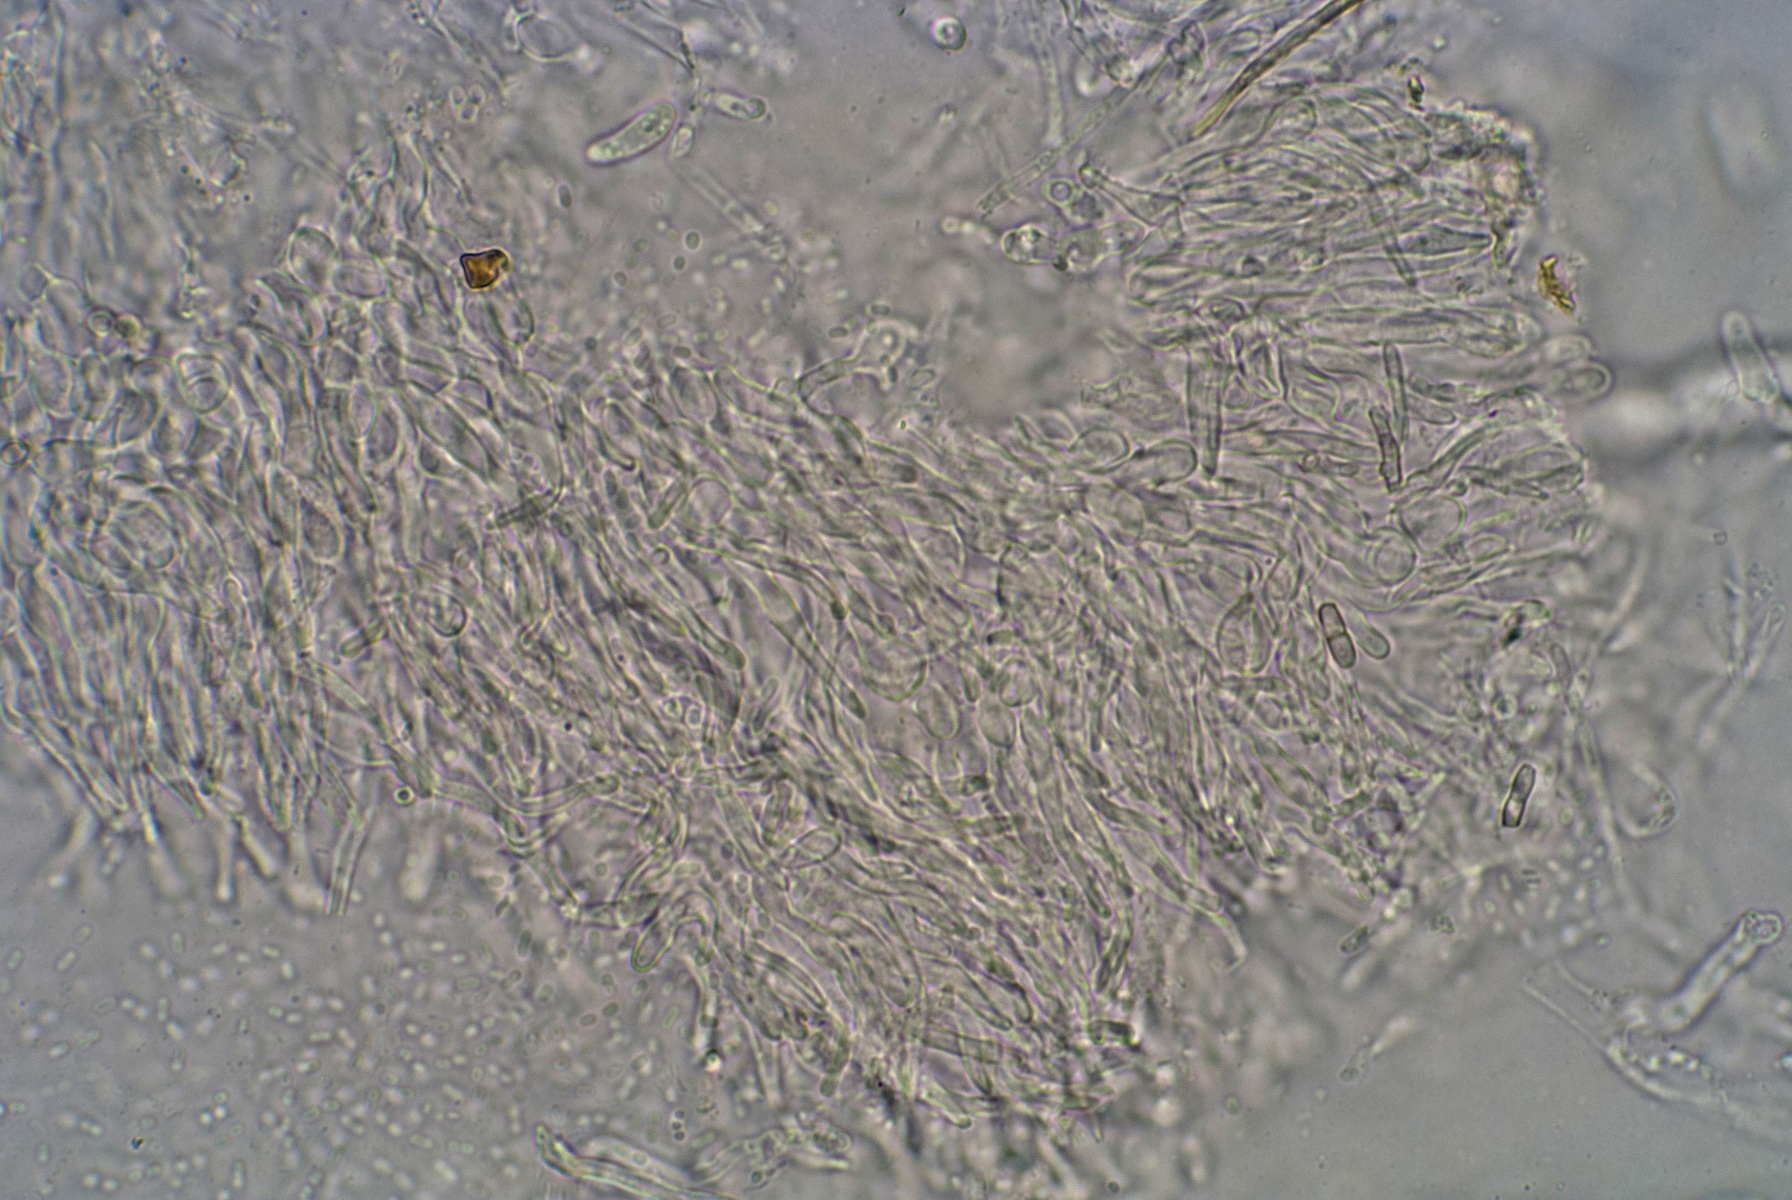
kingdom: Fungi
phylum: Ascomycota
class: Leotiomycetes
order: Helotiales
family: Hyaloscyphaceae
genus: Hyaloscypha
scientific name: Hyaloscypha albohyalina
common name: hvid klarskive
